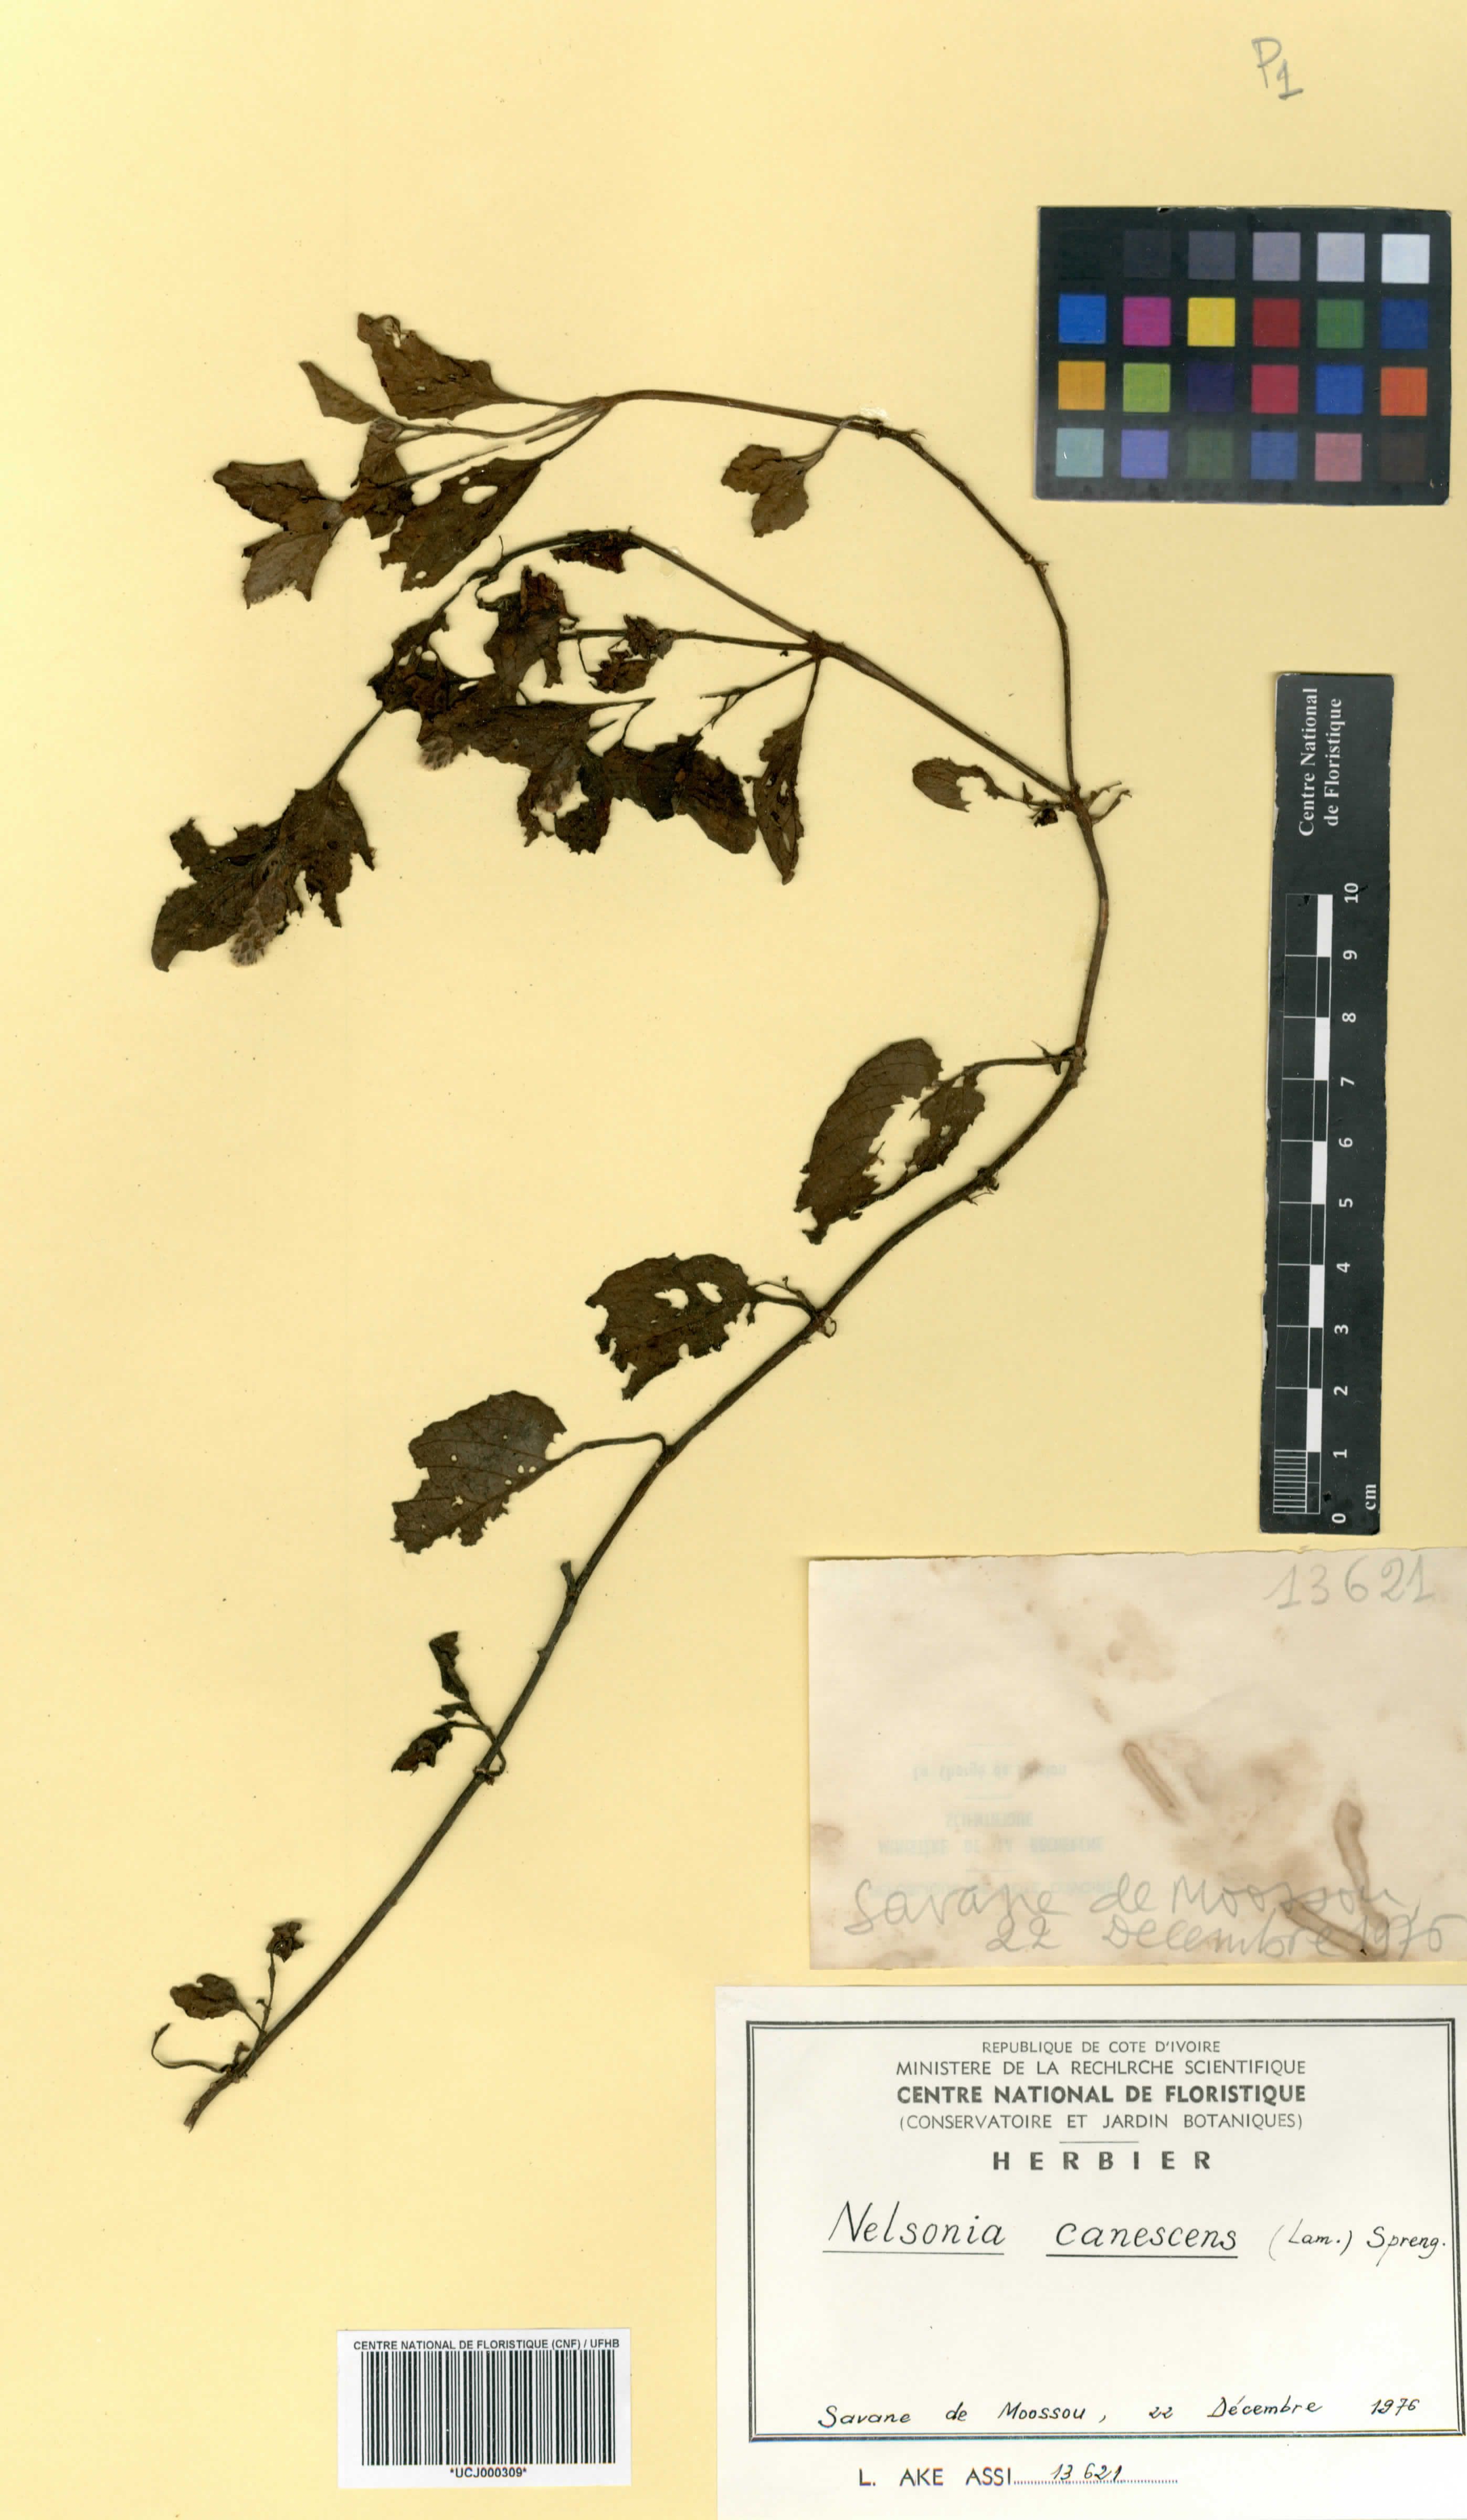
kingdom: Plantae
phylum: Tracheophyta
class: Magnoliopsida
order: Lamiales
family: Acanthaceae
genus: Nelsonia
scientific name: Nelsonia canescens
